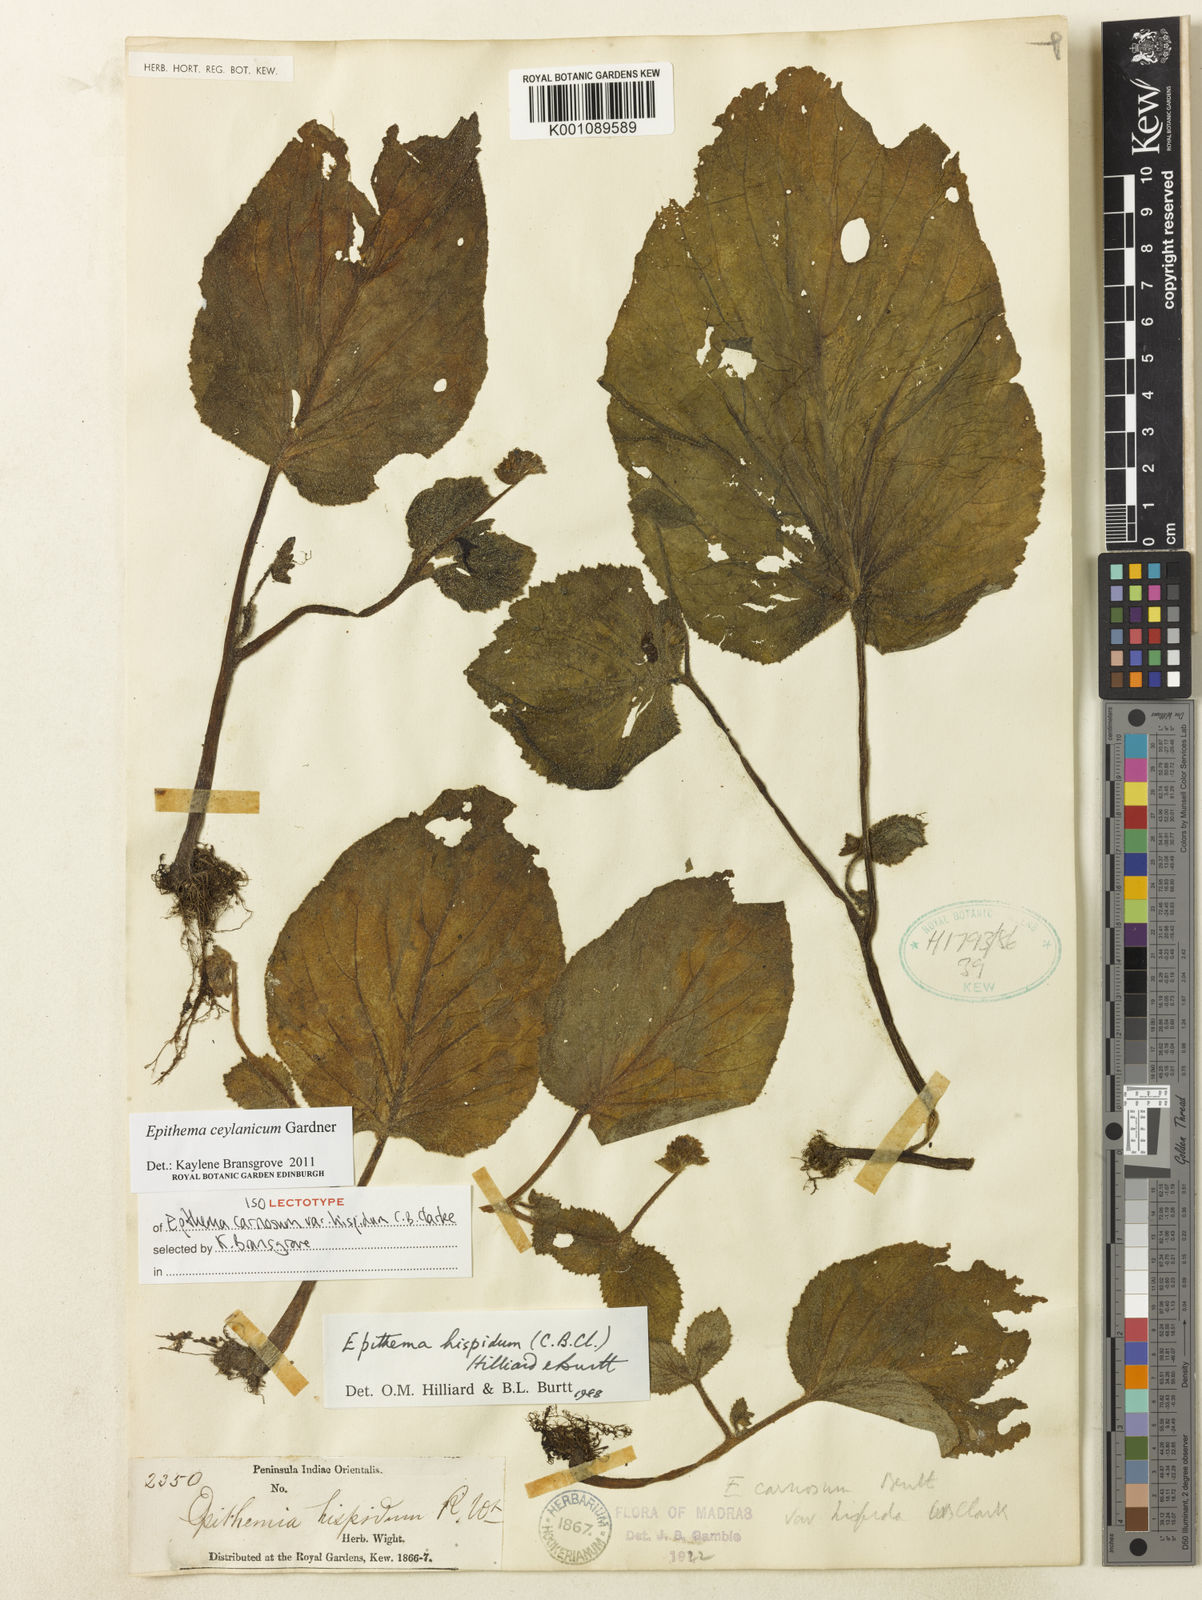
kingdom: Plantae
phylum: Tracheophyta
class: Magnoliopsida
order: Lamiales
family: Gesneriaceae
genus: Epithema
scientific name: Epithema ceylanicum
